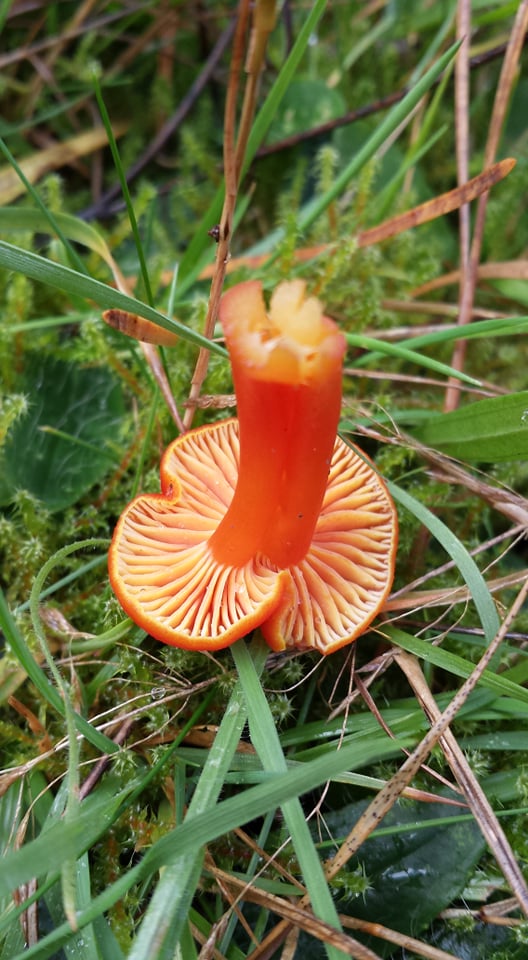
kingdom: Fungi
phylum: Basidiomycota
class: Agaricomycetes
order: Agaricales
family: Hygrophoraceae
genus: Hygrocybe
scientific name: Hygrocybe
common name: vokshat
